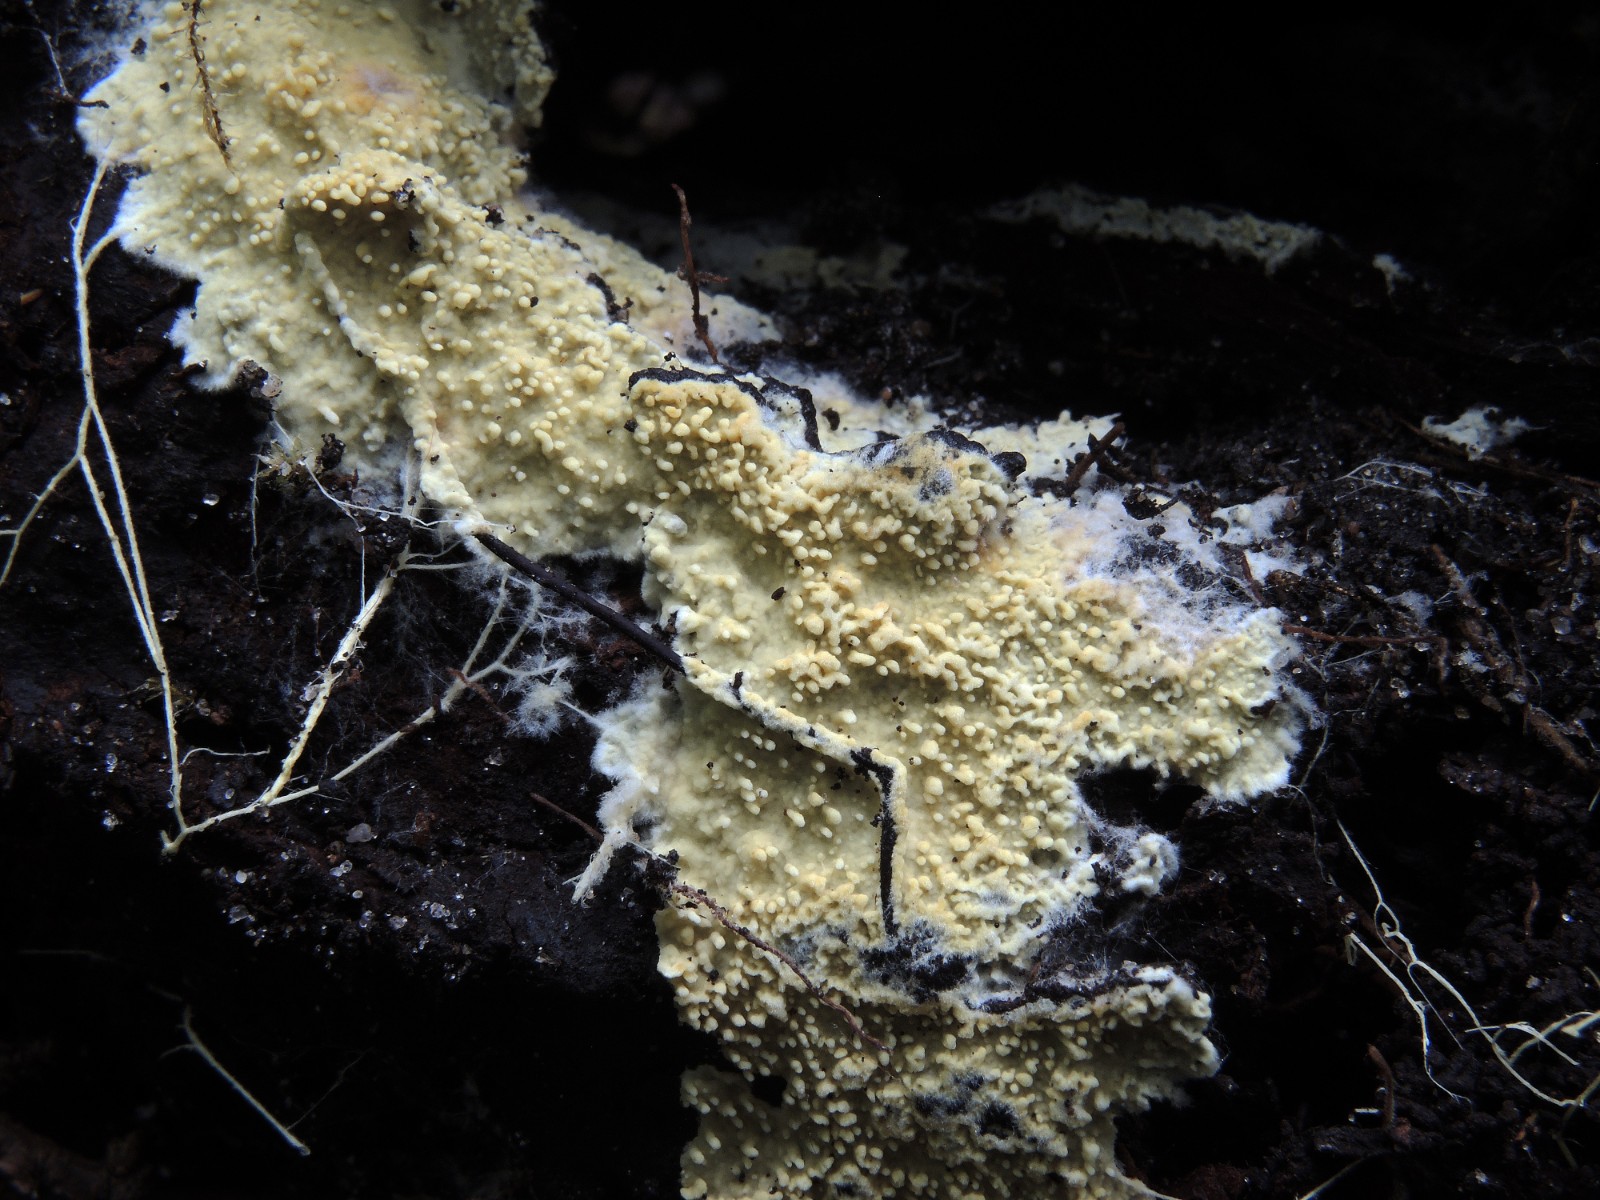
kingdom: Fungi
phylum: Basidiomycota
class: Agaricomycetes
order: Agaricales
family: Stephanosporaceae
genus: Cristinia
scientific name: Cristinia eichleri
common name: tandet citrushinde
